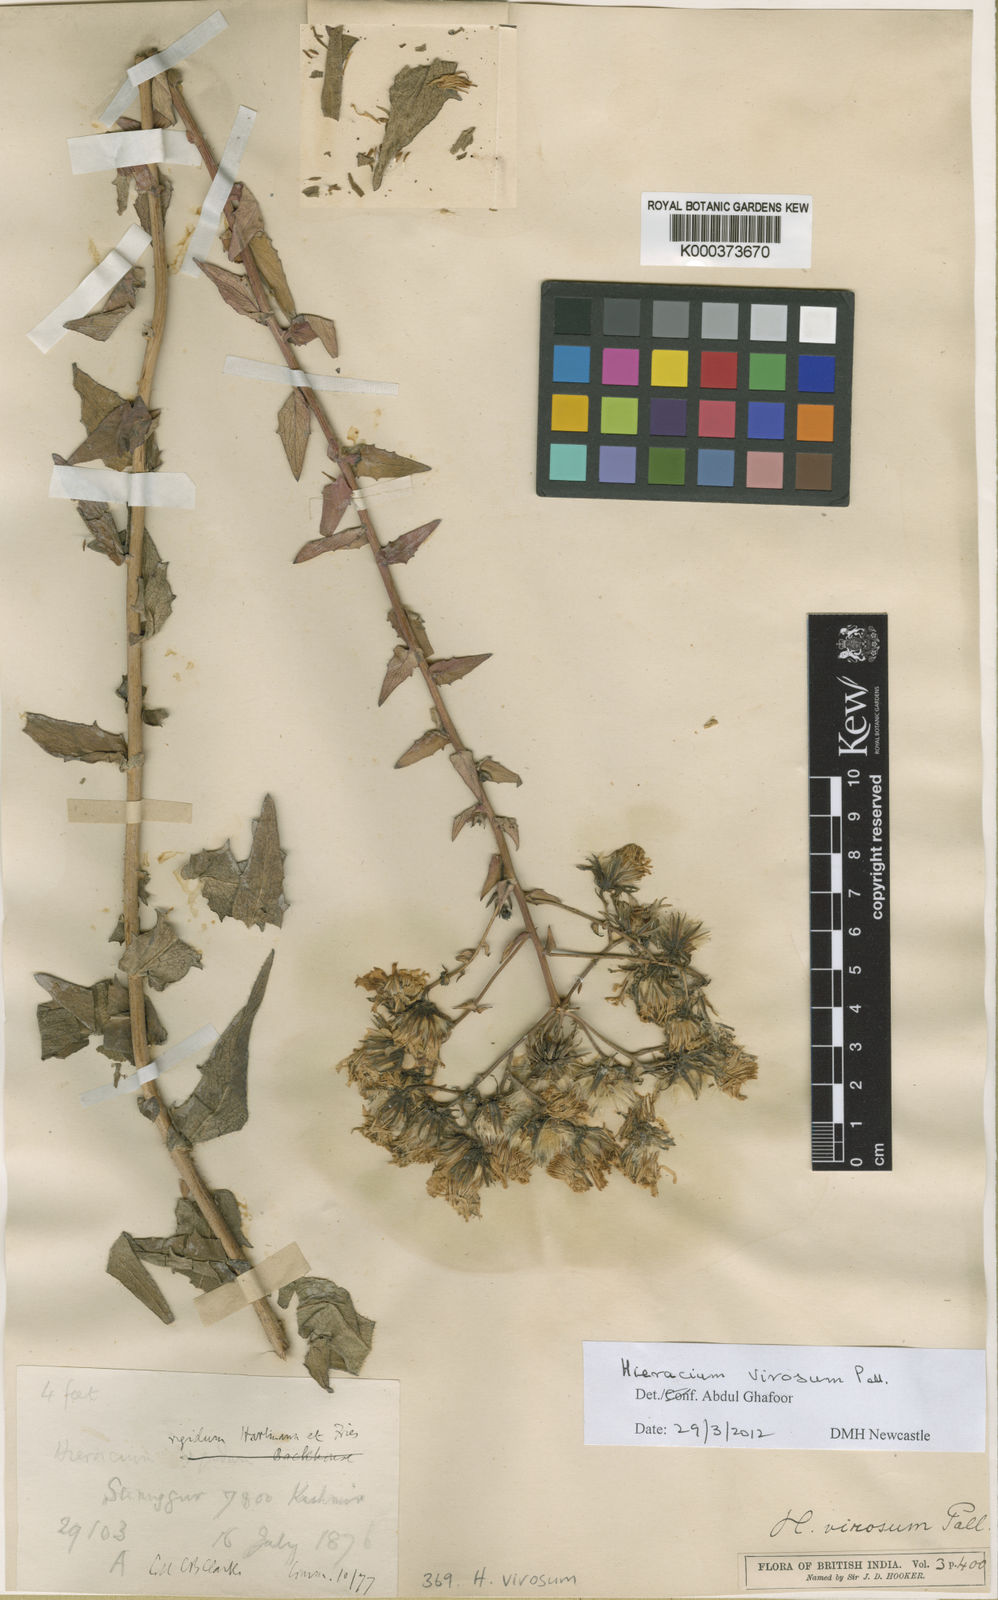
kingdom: Plantae
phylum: Tracheophyta
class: Magnoliopsida
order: Asterales
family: Asteraceae
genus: Hieracium
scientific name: Hieracium virosum
